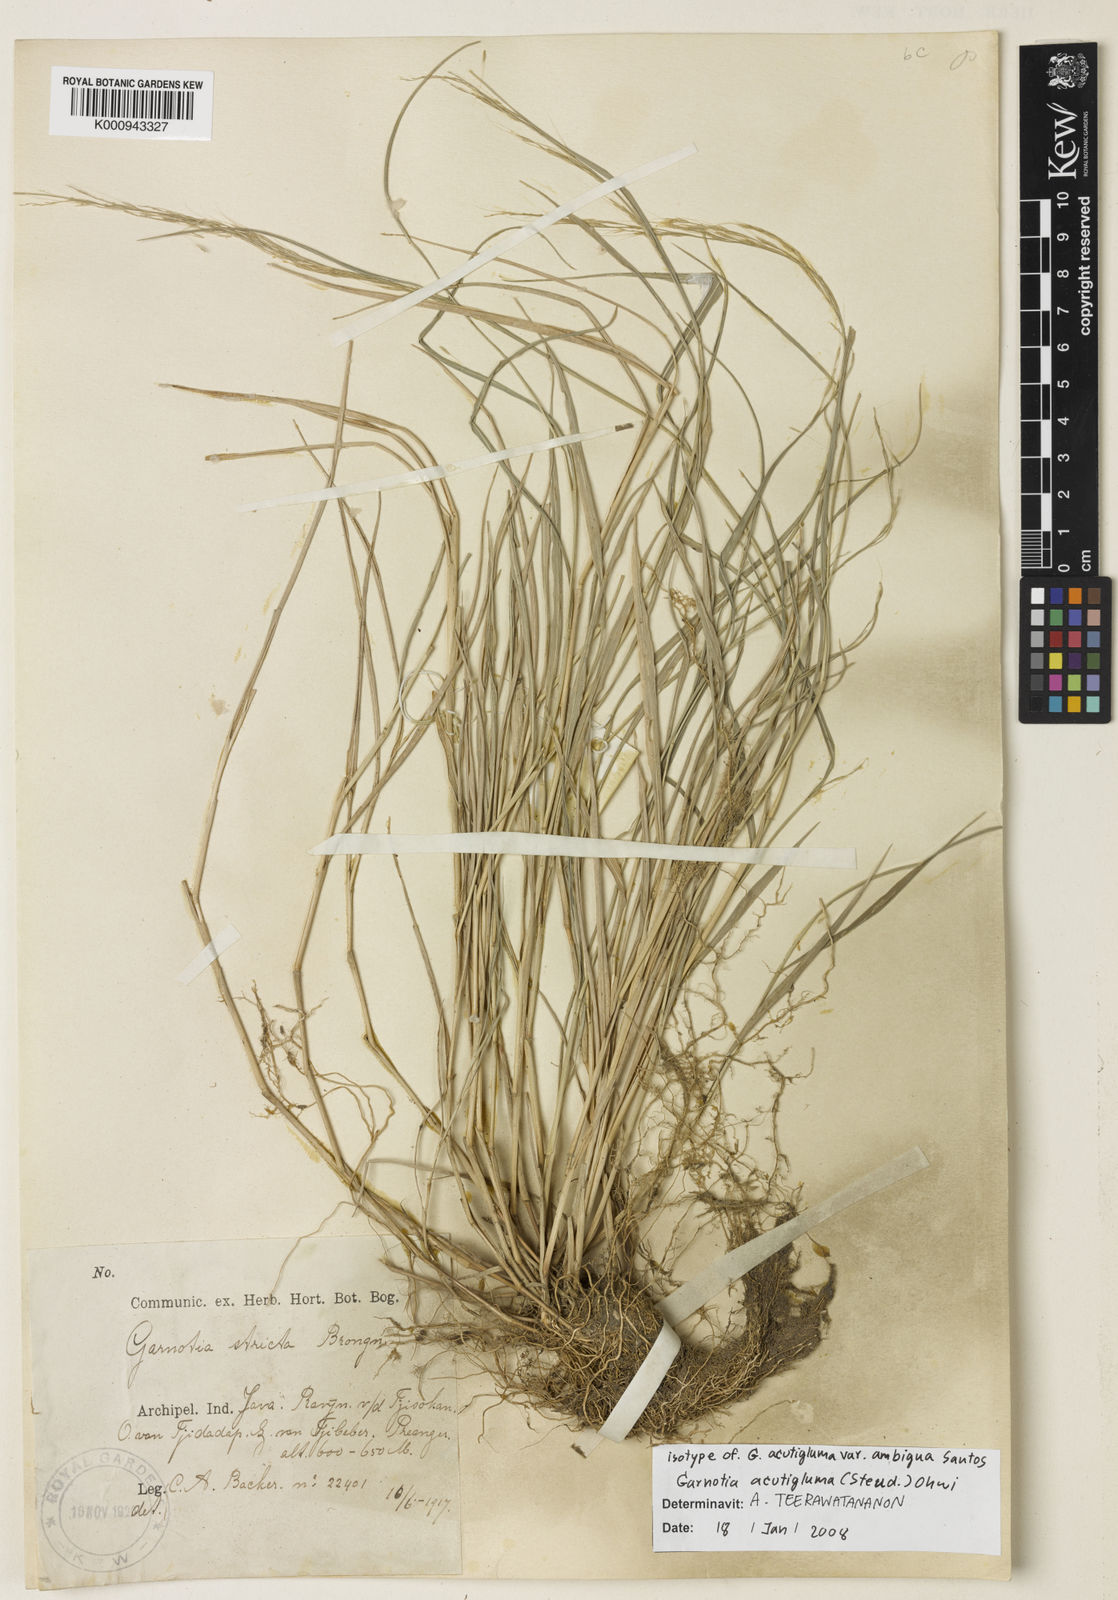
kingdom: Plantae
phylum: Tracheophyta
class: Liliopsida
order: Poales
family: Poaceae
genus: Garnotia
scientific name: Garnotia stricta
